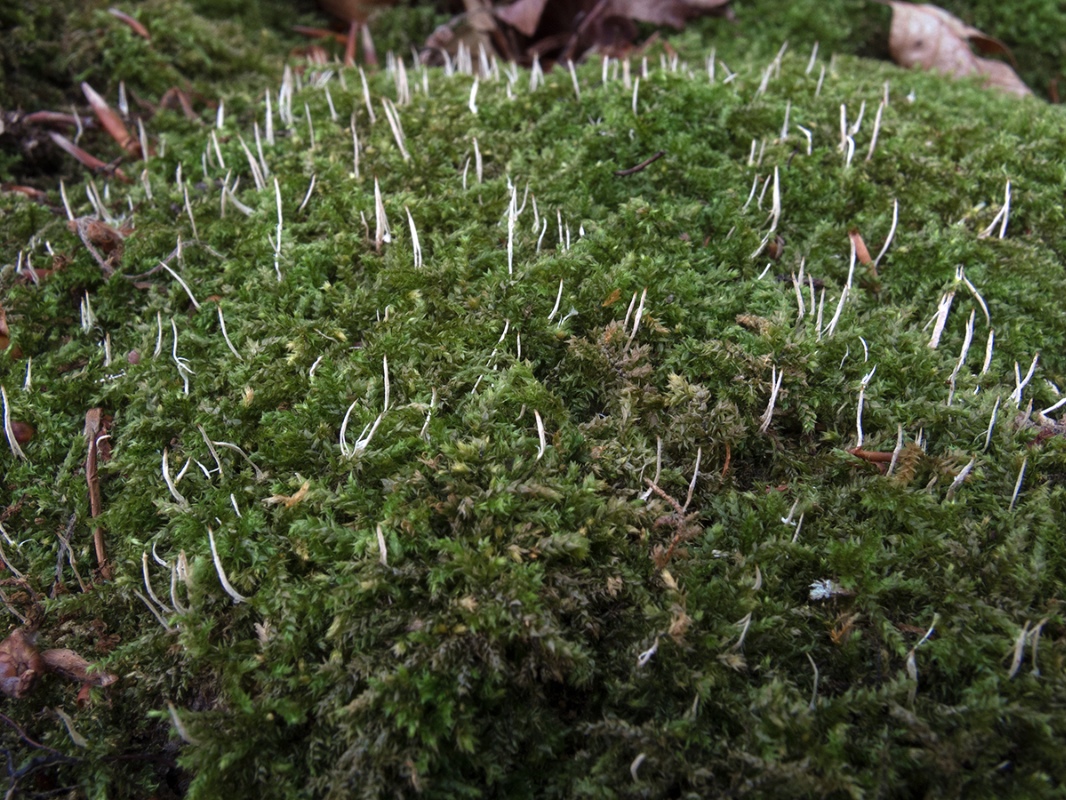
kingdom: Fungi
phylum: Basidiomycota
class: Pucciniomycetes
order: Platygloeales
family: Eocronartiaceae
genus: Eocronartium
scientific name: Eocronartium muscicola
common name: moskølle
